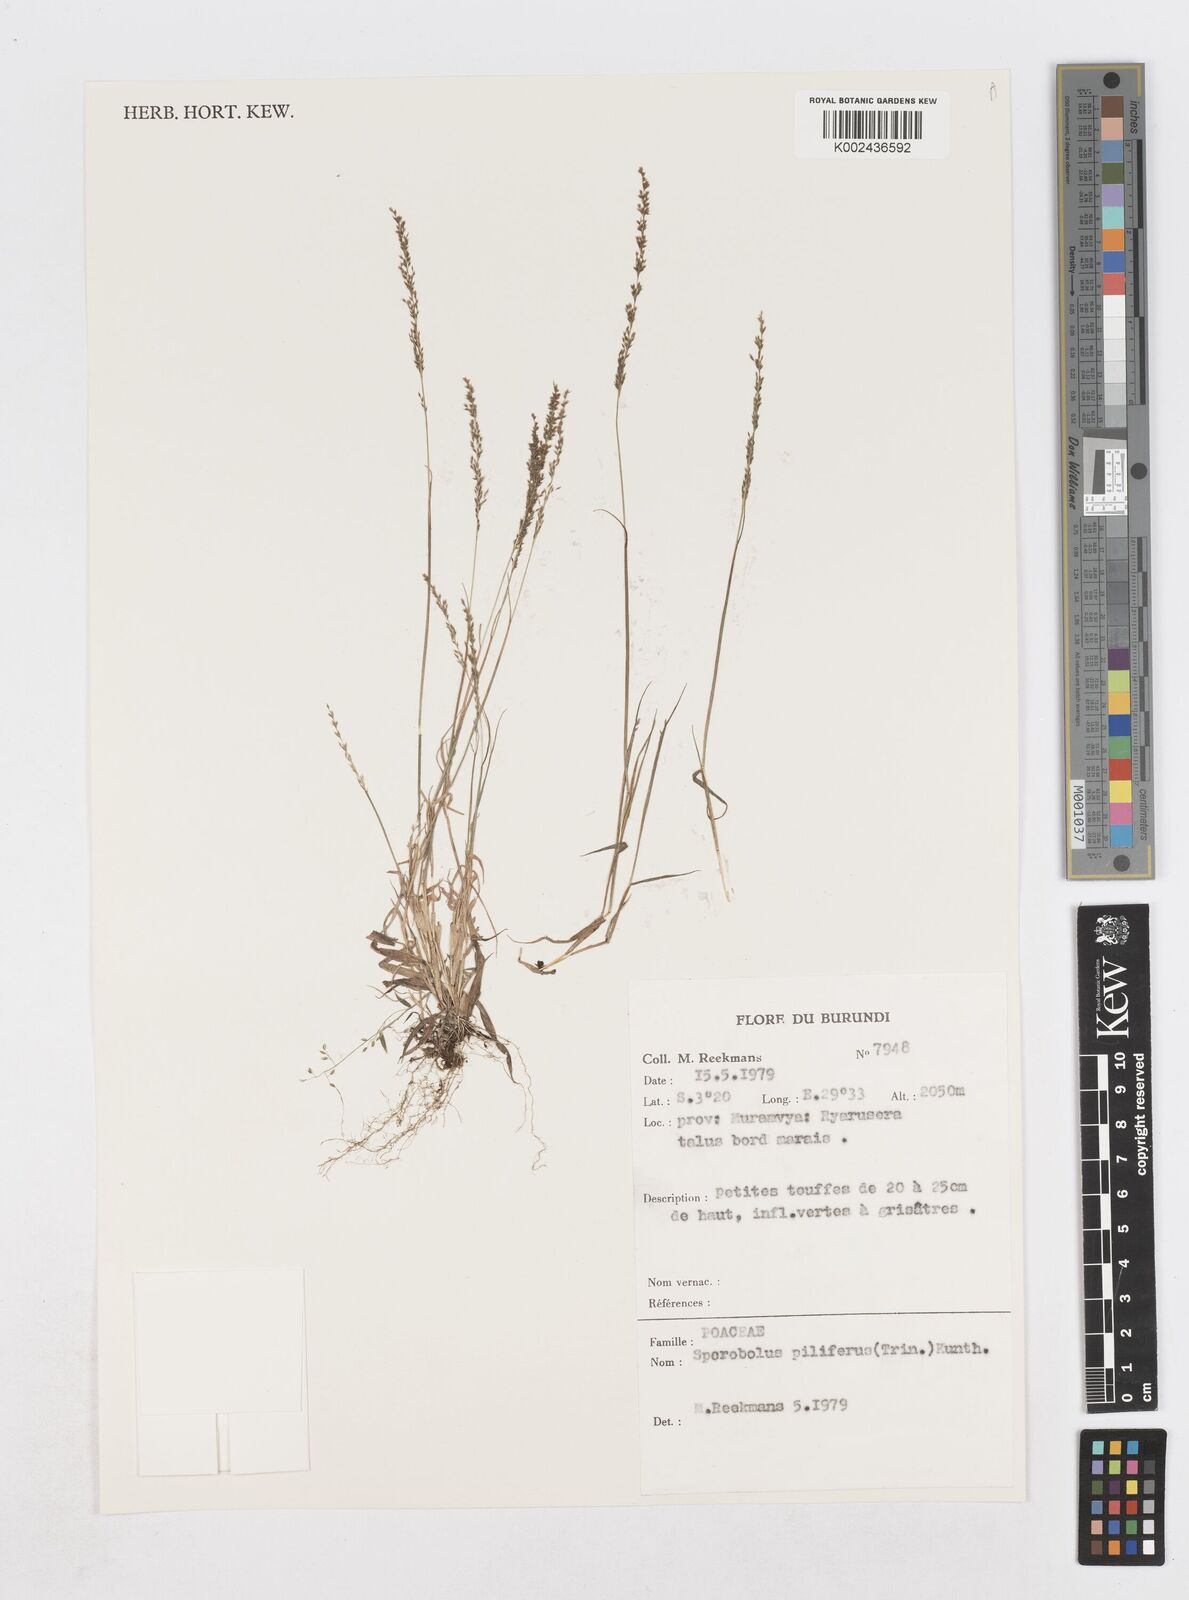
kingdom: Plantae
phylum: Tracheophyta
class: Liliopsida
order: Poales
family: Poaceae
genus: Sporobolus
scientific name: Sporobolus pilifer
